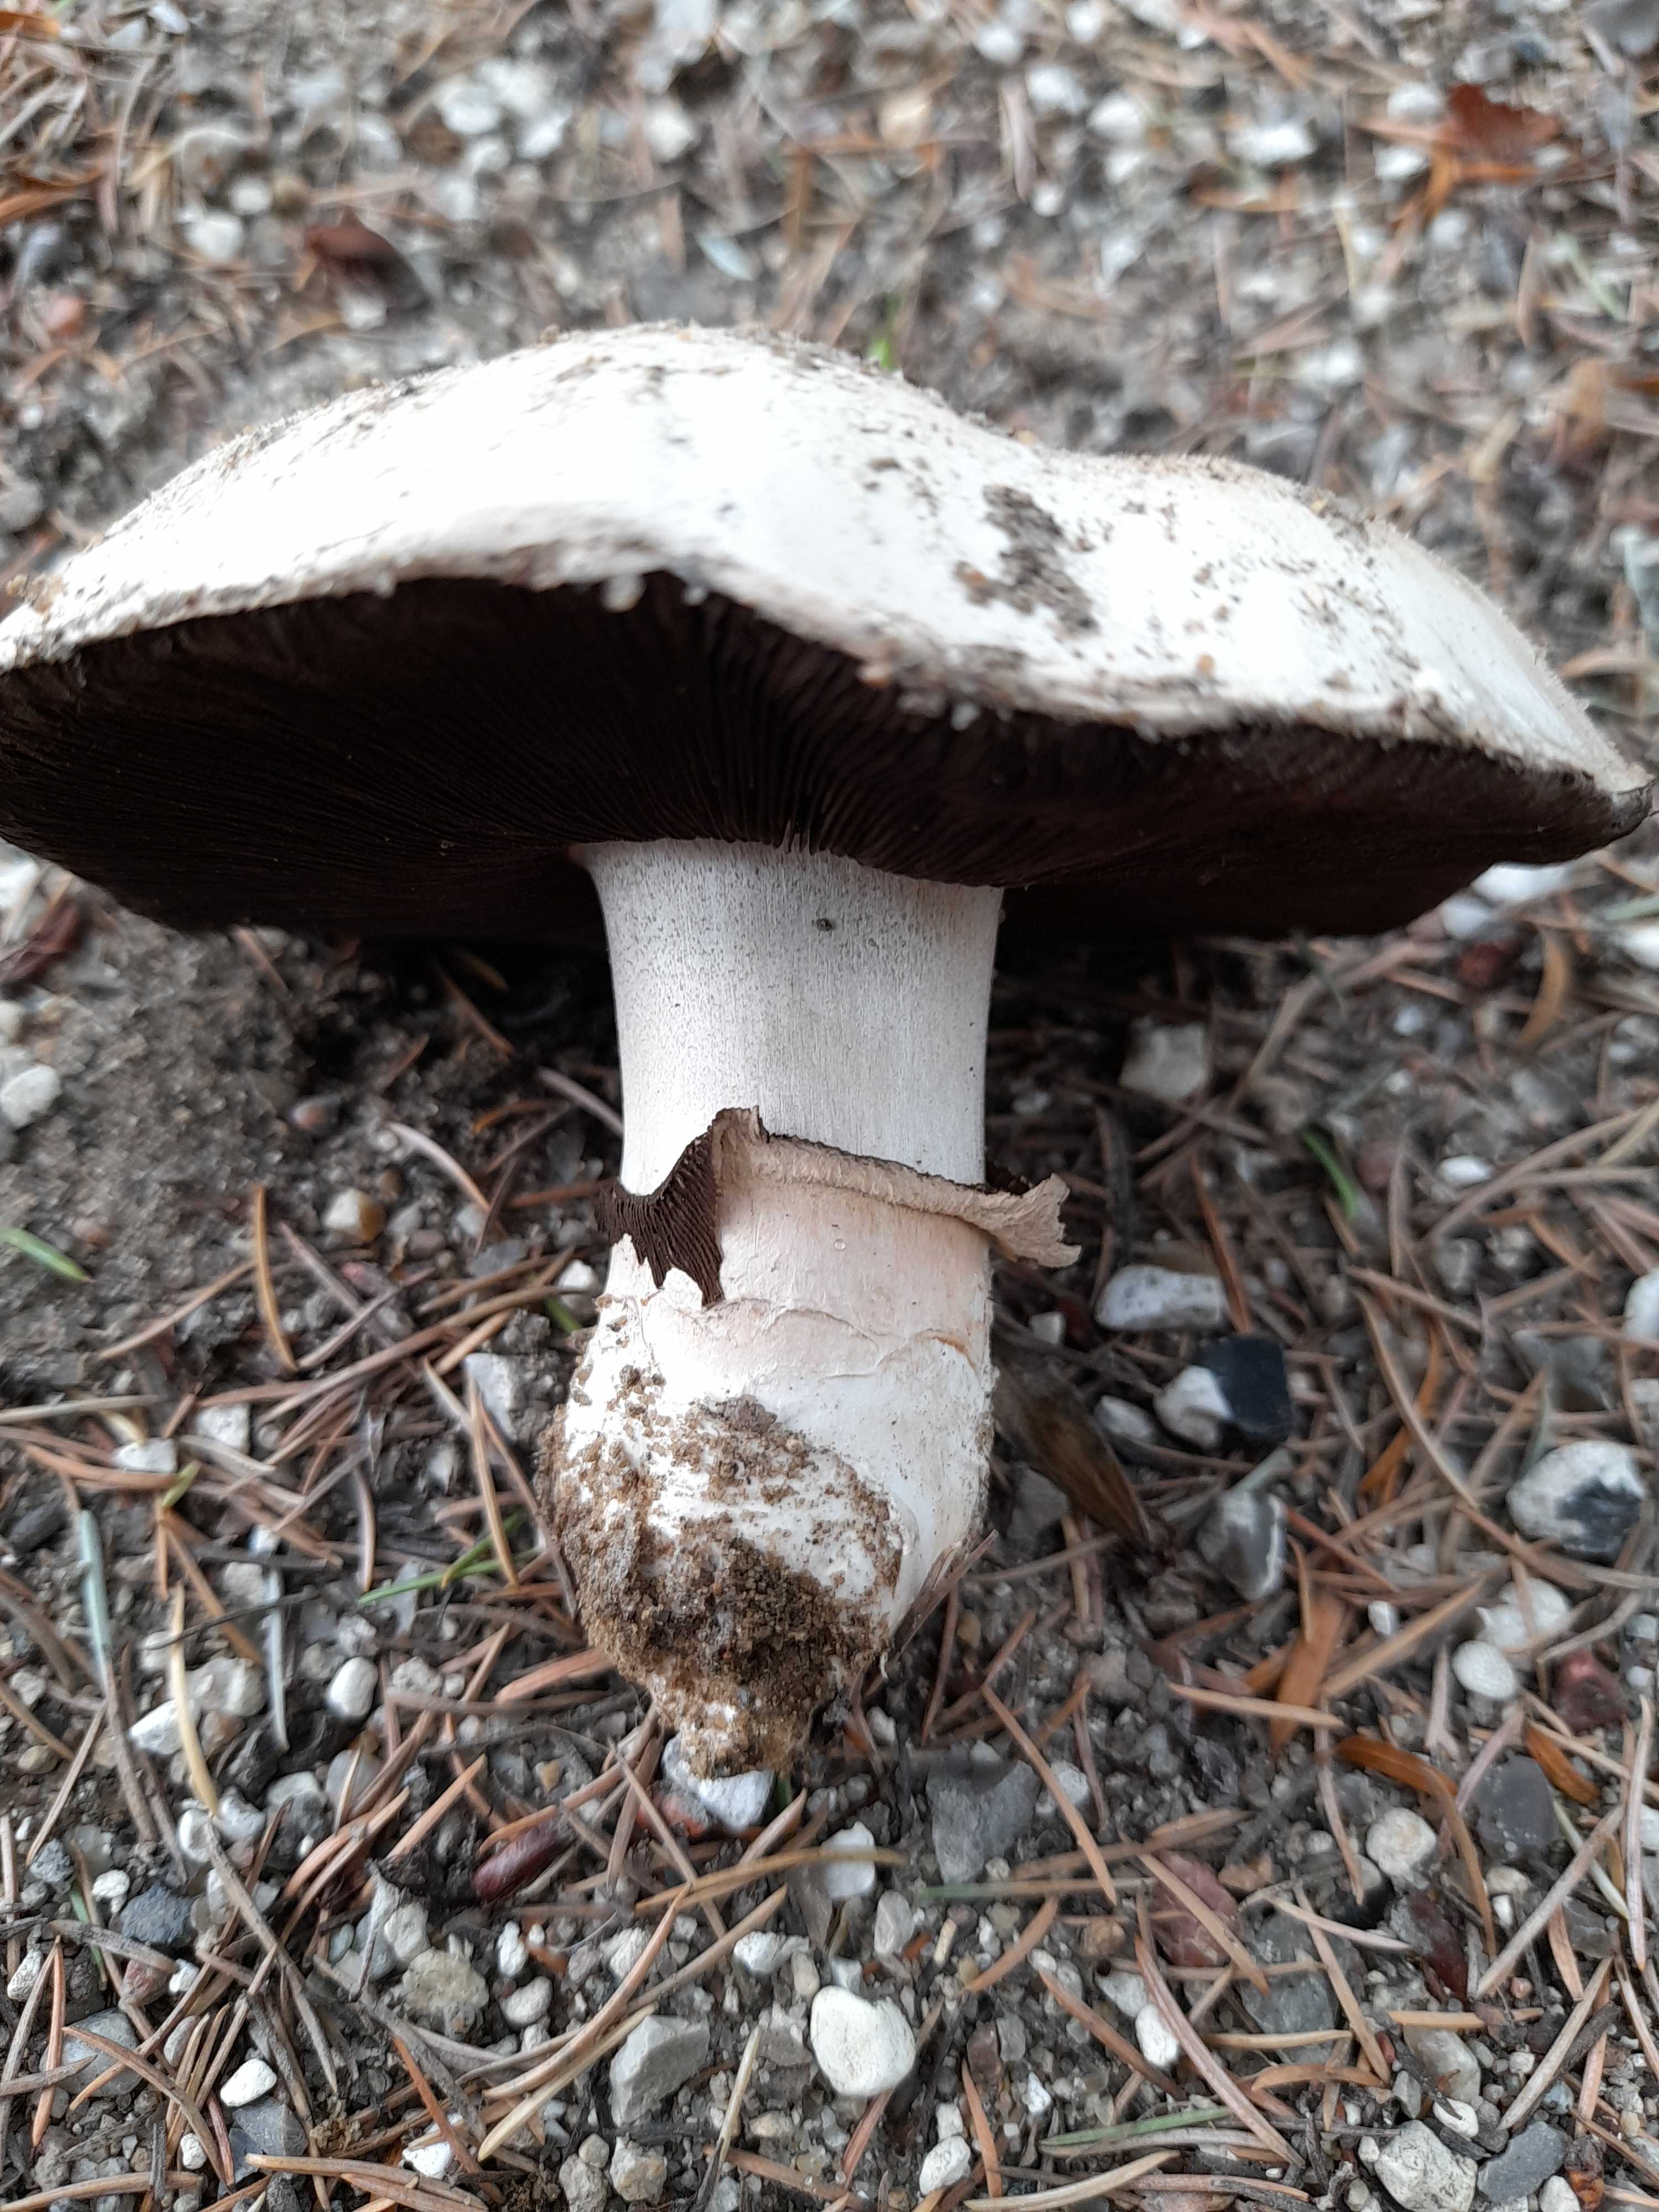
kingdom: Fungi
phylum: Basidiomycota
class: Agaricomycetes
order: Agaricales
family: Agaricaceae
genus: Agaricus
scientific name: Agaricus bitorquis
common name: vej-champignon
